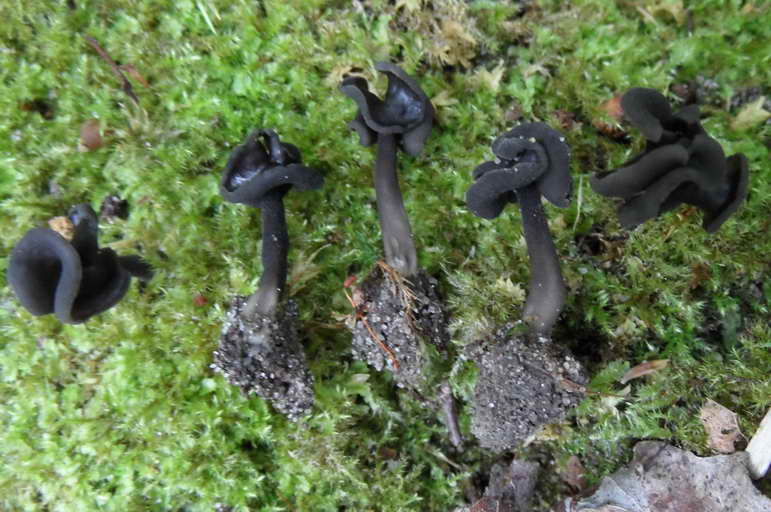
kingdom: Fungi
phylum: Ascomycota
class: Pezizomycetes
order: Pezizales
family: Helvellaceae
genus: Helvella
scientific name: Helvella atra
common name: sort foldhat
